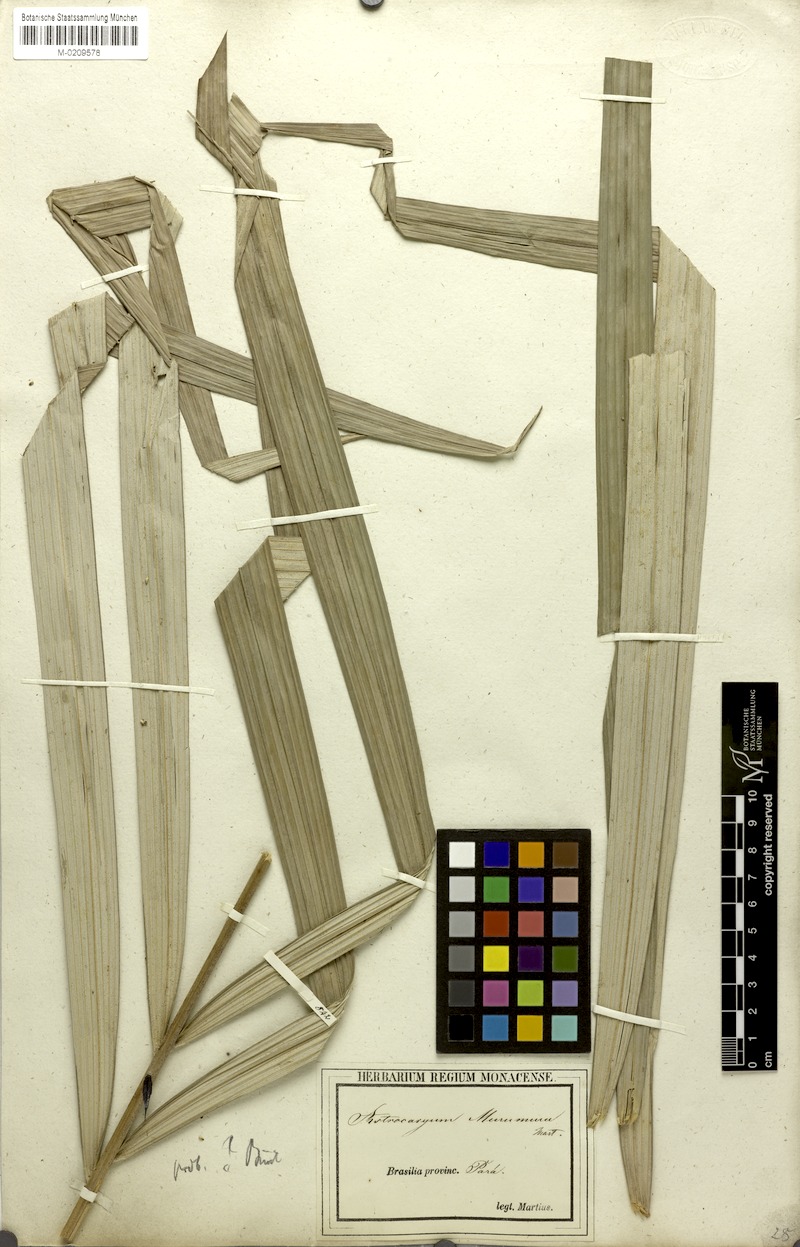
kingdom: Plantae
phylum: Tracheophyta
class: Liliopsida
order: Arecales
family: Arecaceae
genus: Astrocaryum
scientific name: Astrocaryum murumuru
